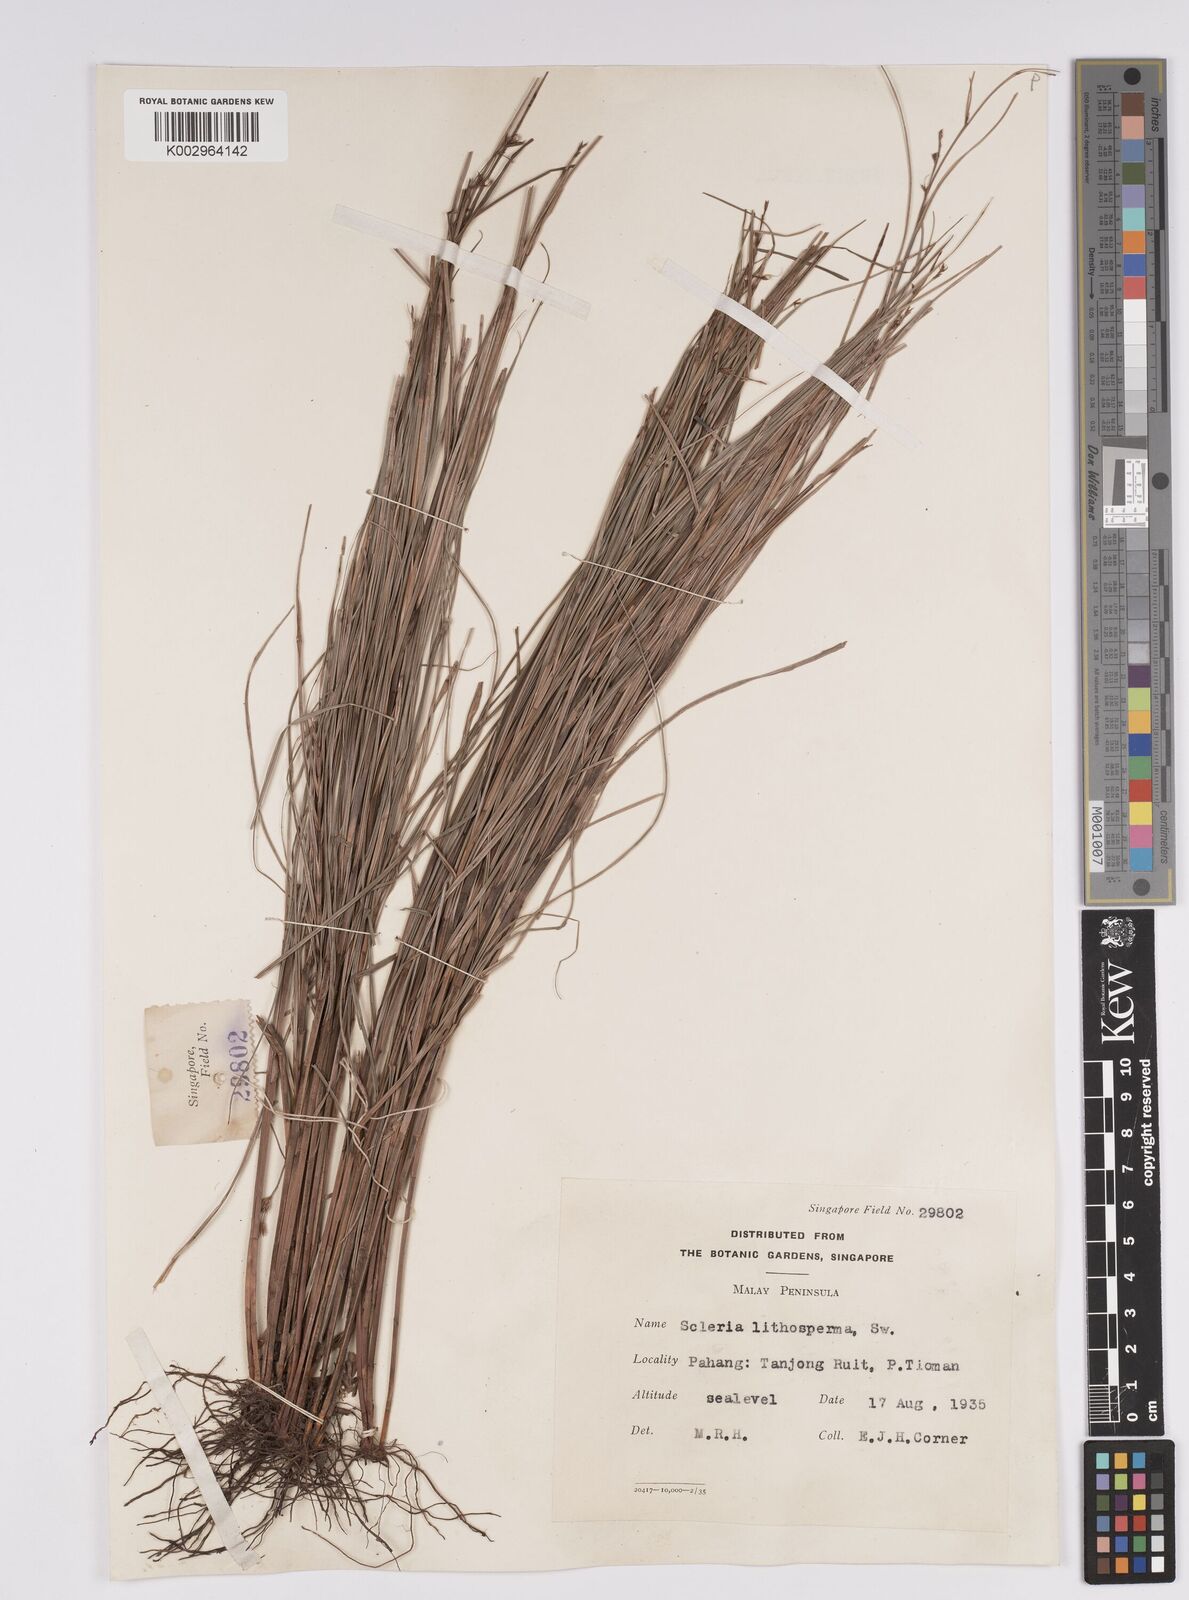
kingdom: Plantae
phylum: Tracheophyta
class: Liliopsida
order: Poales
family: Cyperaceae
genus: Scleria
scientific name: Scleria lithosperma
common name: Florida keys nut-rush
